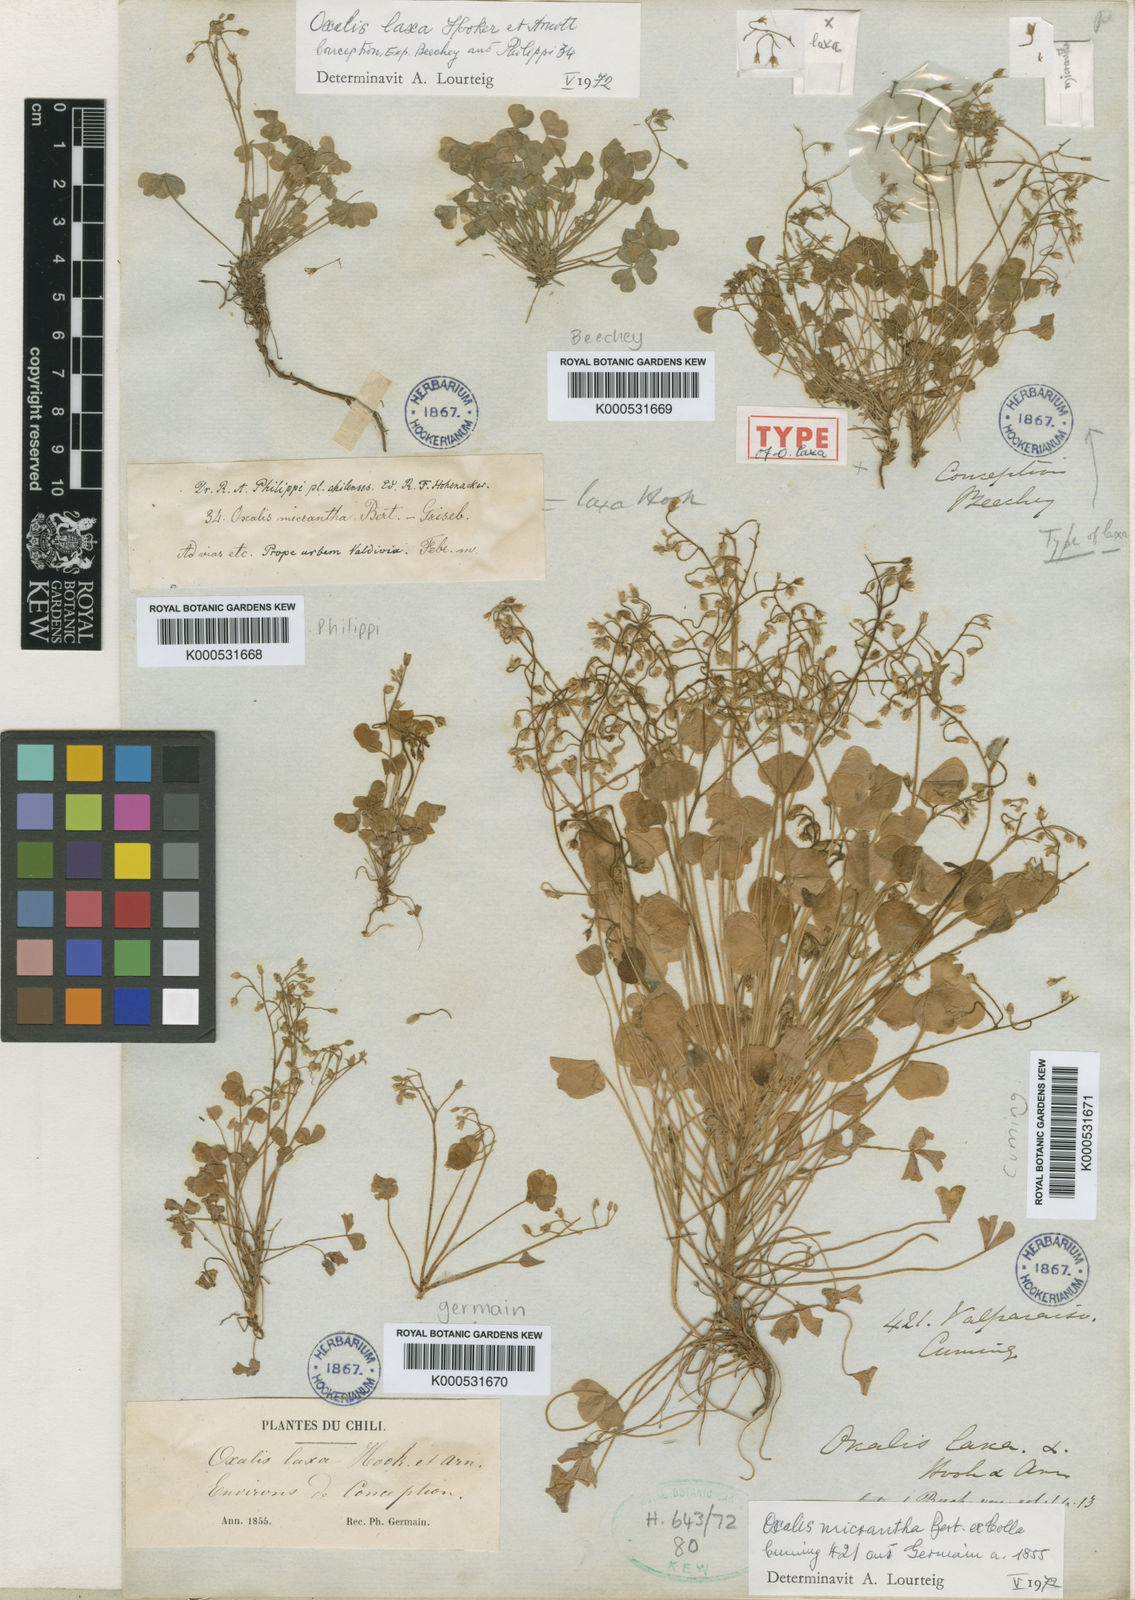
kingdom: Plantae
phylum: Tracheophyta
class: Magnoliopsida
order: Oxalidales
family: Oxalidaceae
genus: Oxalis
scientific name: Oxalis laxa
